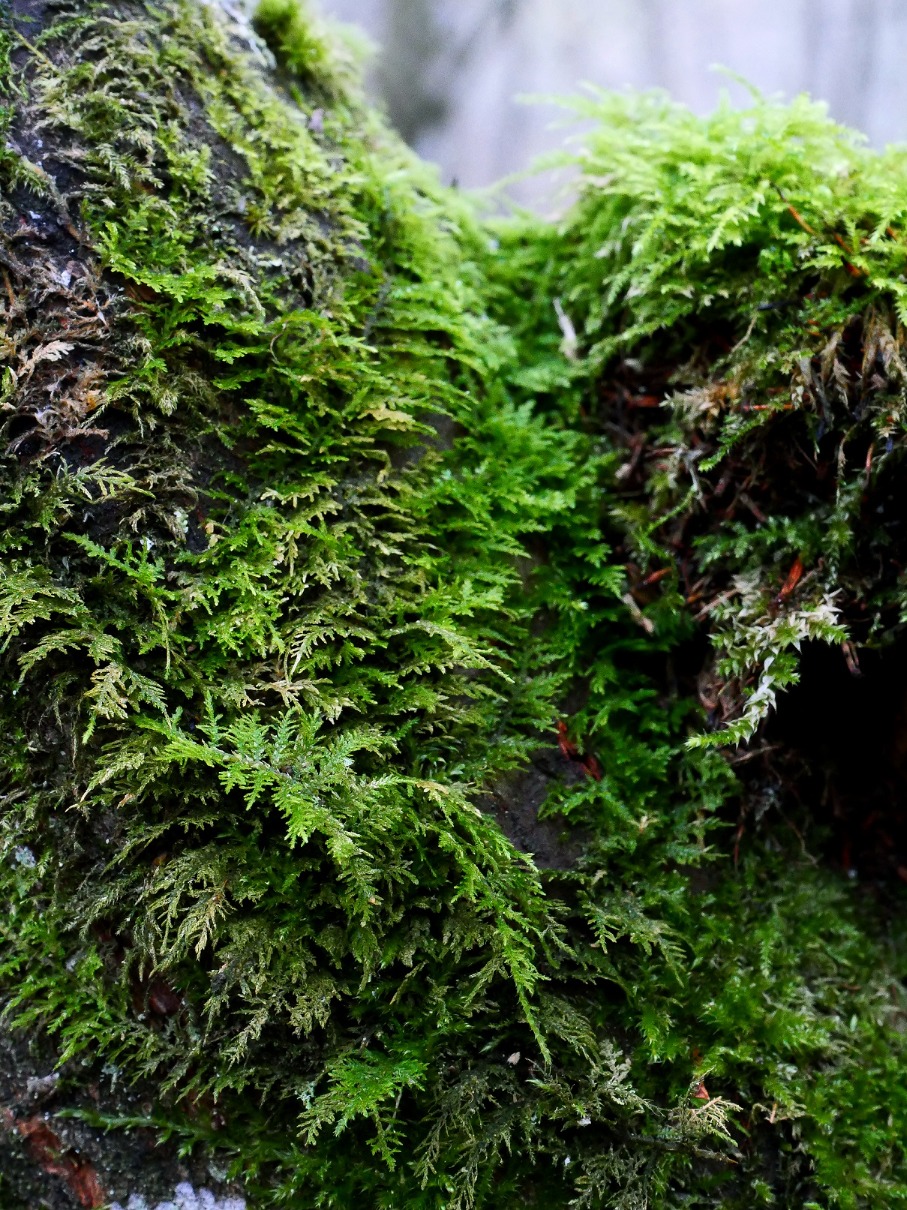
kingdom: Plantae
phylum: Bryophyta
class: Bryopsida
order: Hypnales
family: Thuidiaceae
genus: Thuidium
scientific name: Thuidium tamariscinum
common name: Pryd-bregnemos
